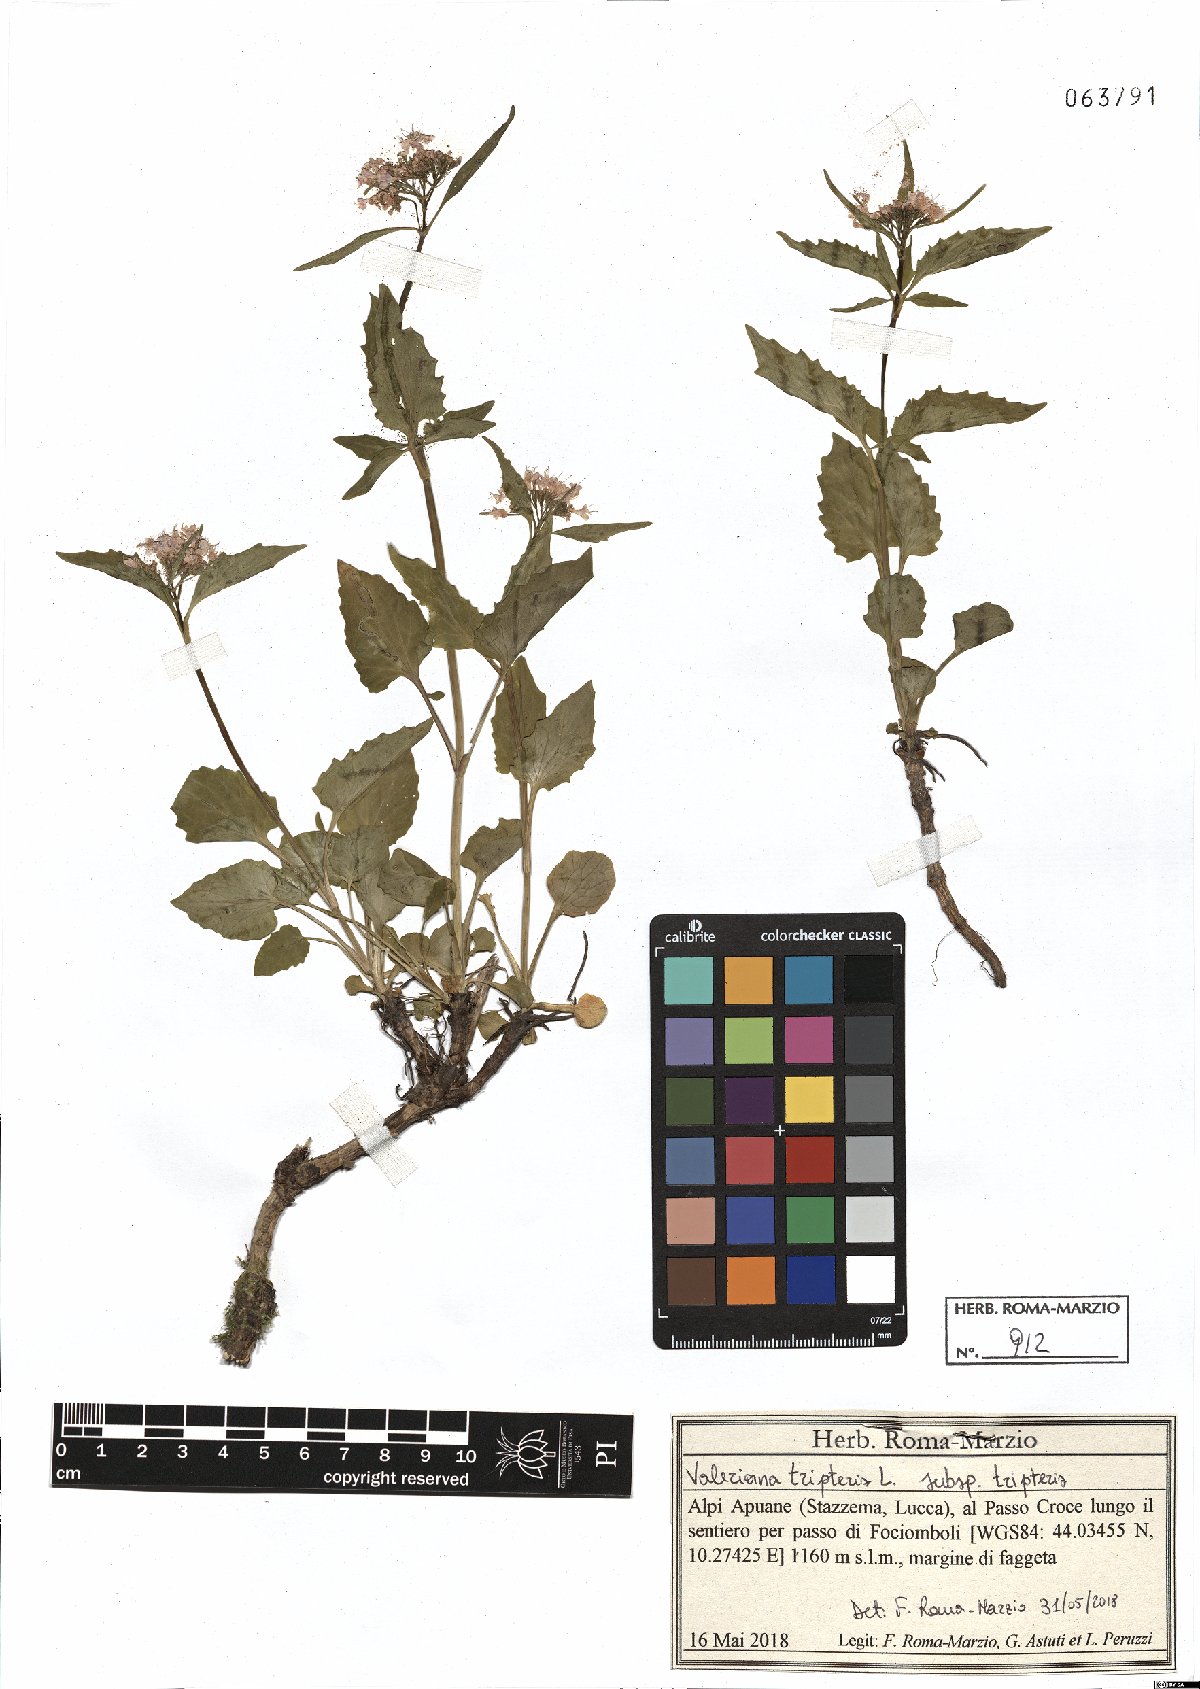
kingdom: Plantae
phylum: Tracheophyta
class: Magnoliopsida
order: Dipsacales
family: Caprifoliaceae
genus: Valeriana
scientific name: Valeriana tripteris
